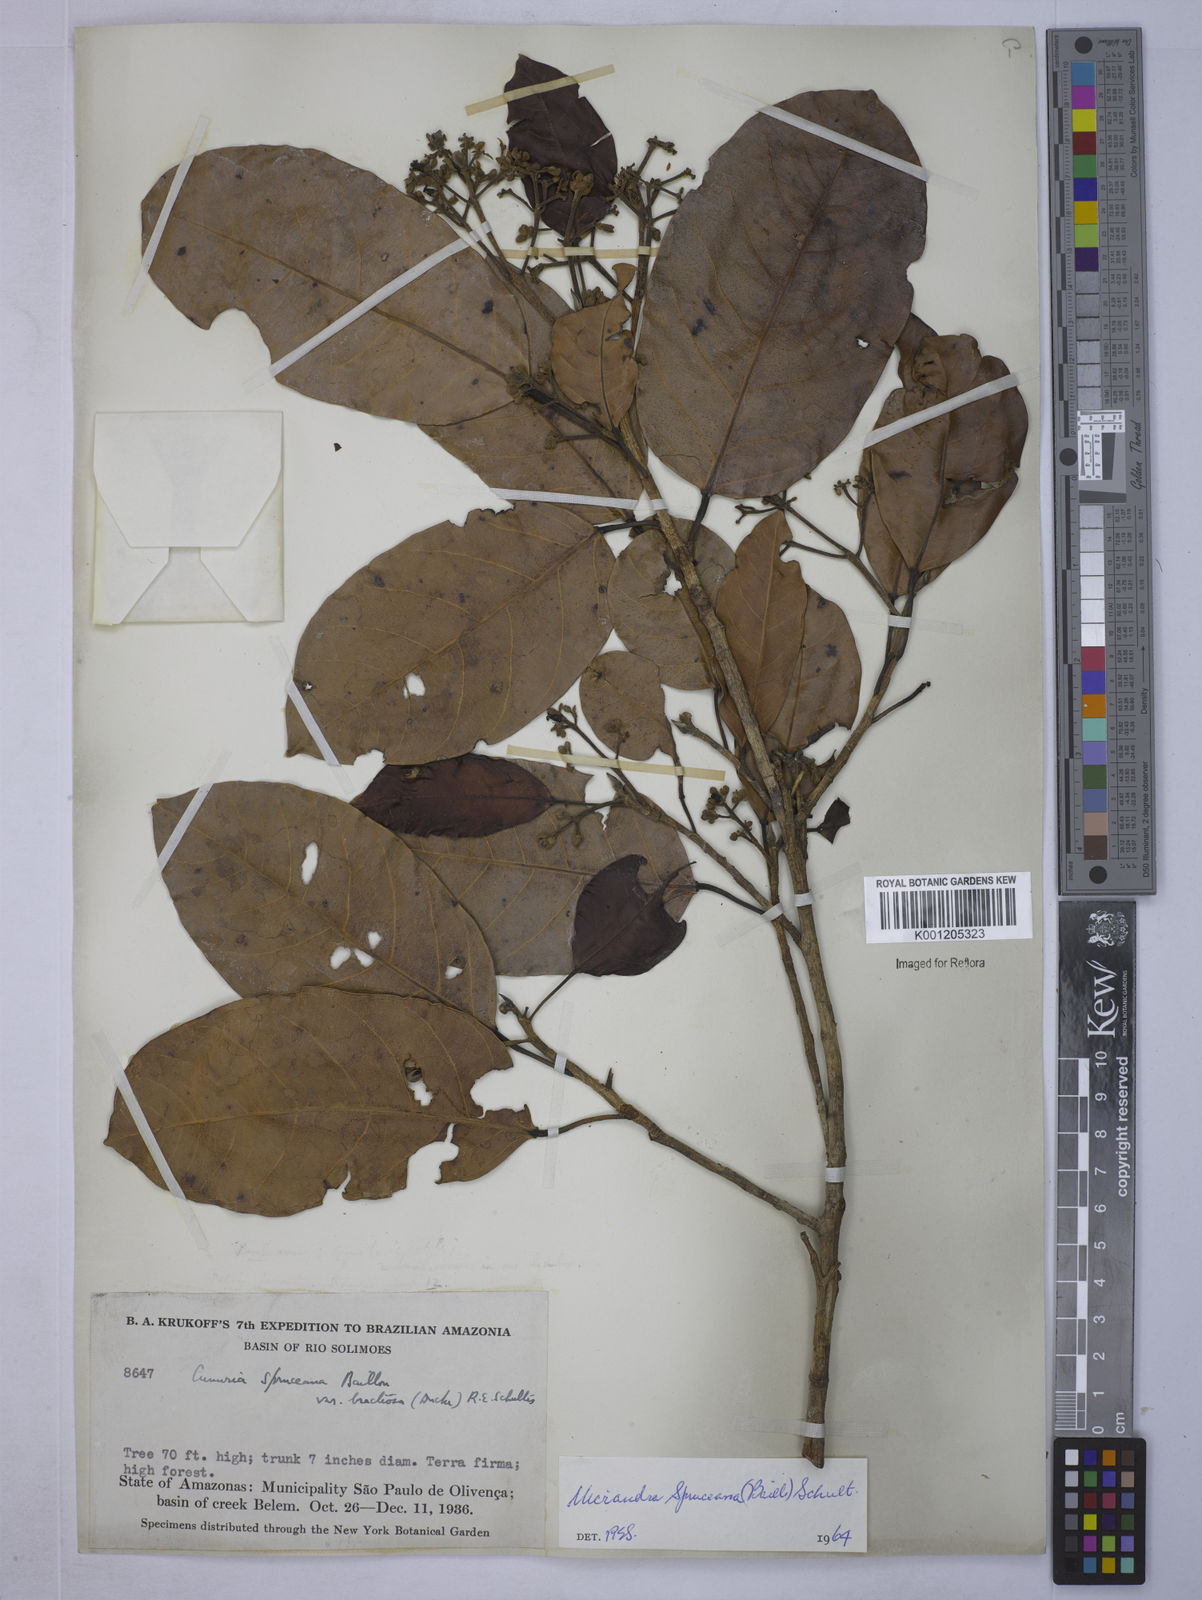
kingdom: Plantae
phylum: Tracheophyta
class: Magnoliopsida
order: Malpighiales
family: Euphorbiaceae
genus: Micrandra
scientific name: Micrandra spruceana
